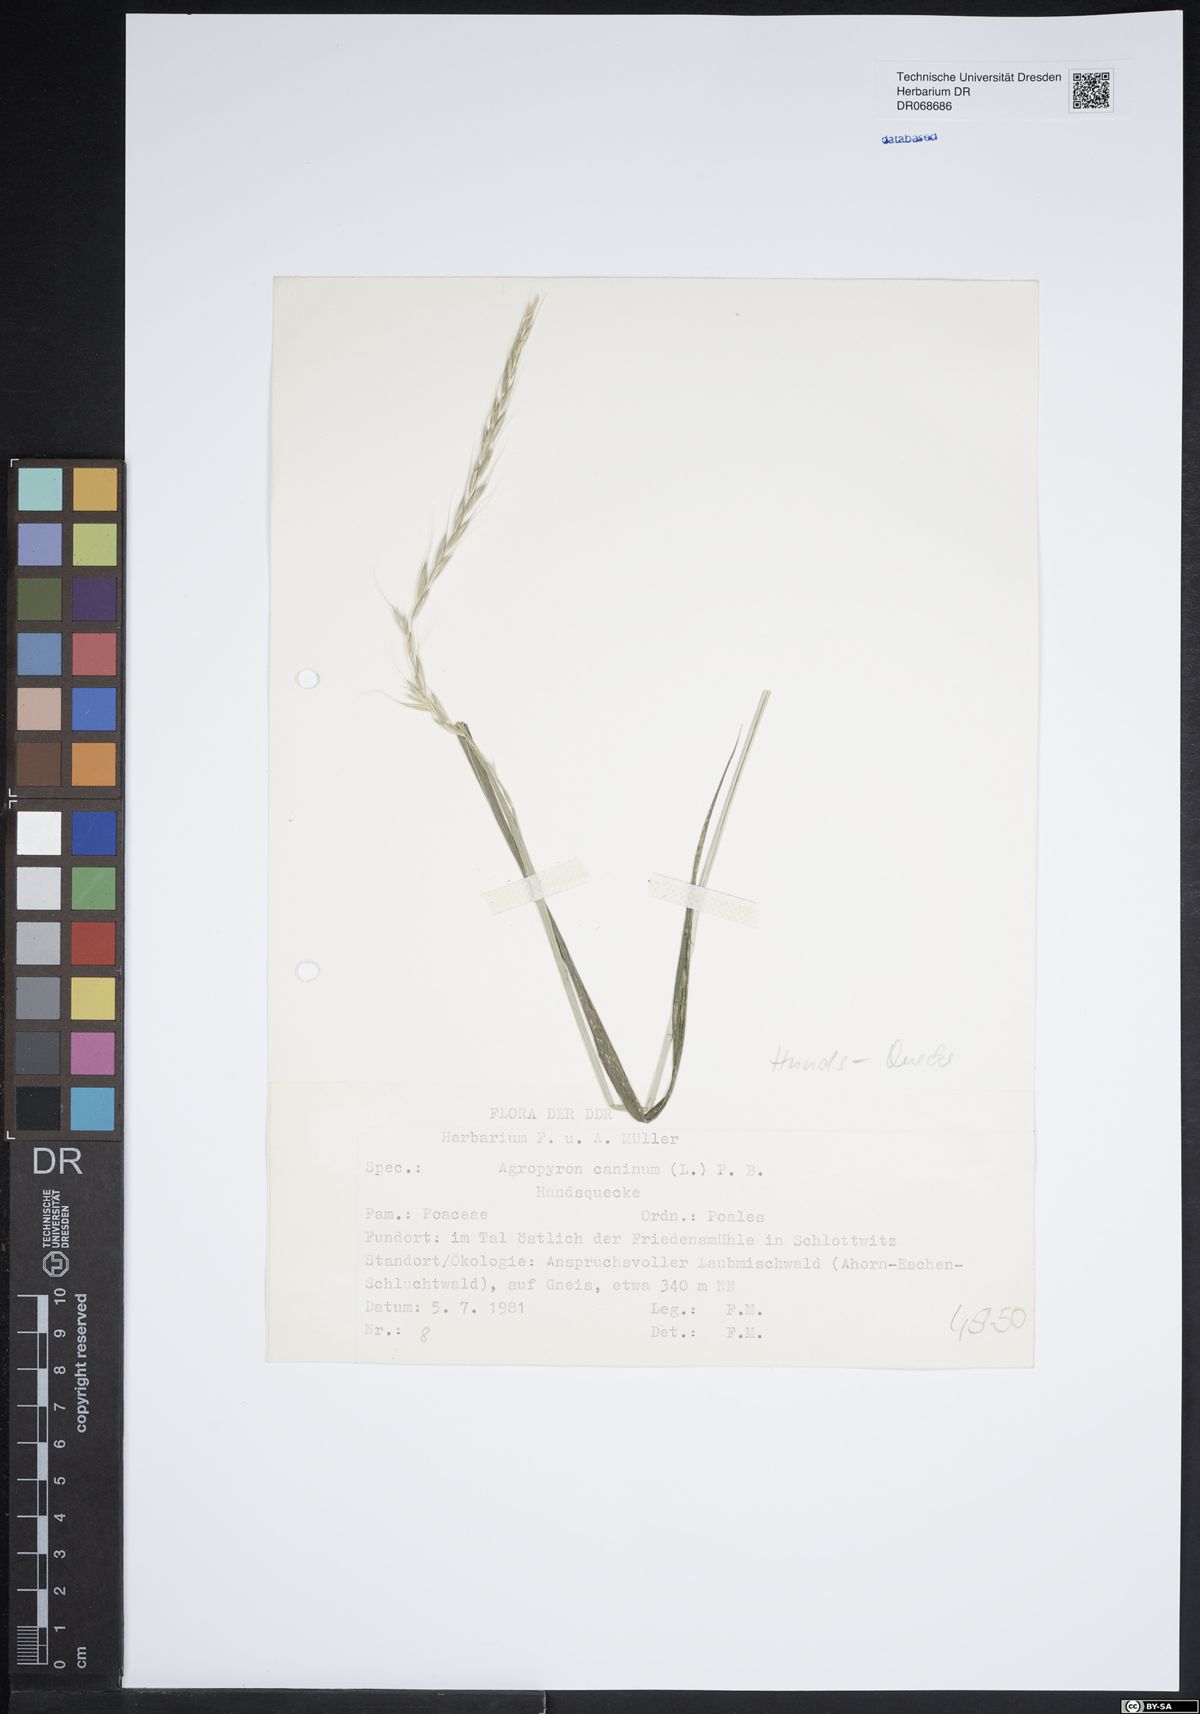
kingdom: Plantae
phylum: Tracheophyta
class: Liliopsida
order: Poales
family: Poaceae
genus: Elymus
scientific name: Elymus caninus
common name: Bearded couch
